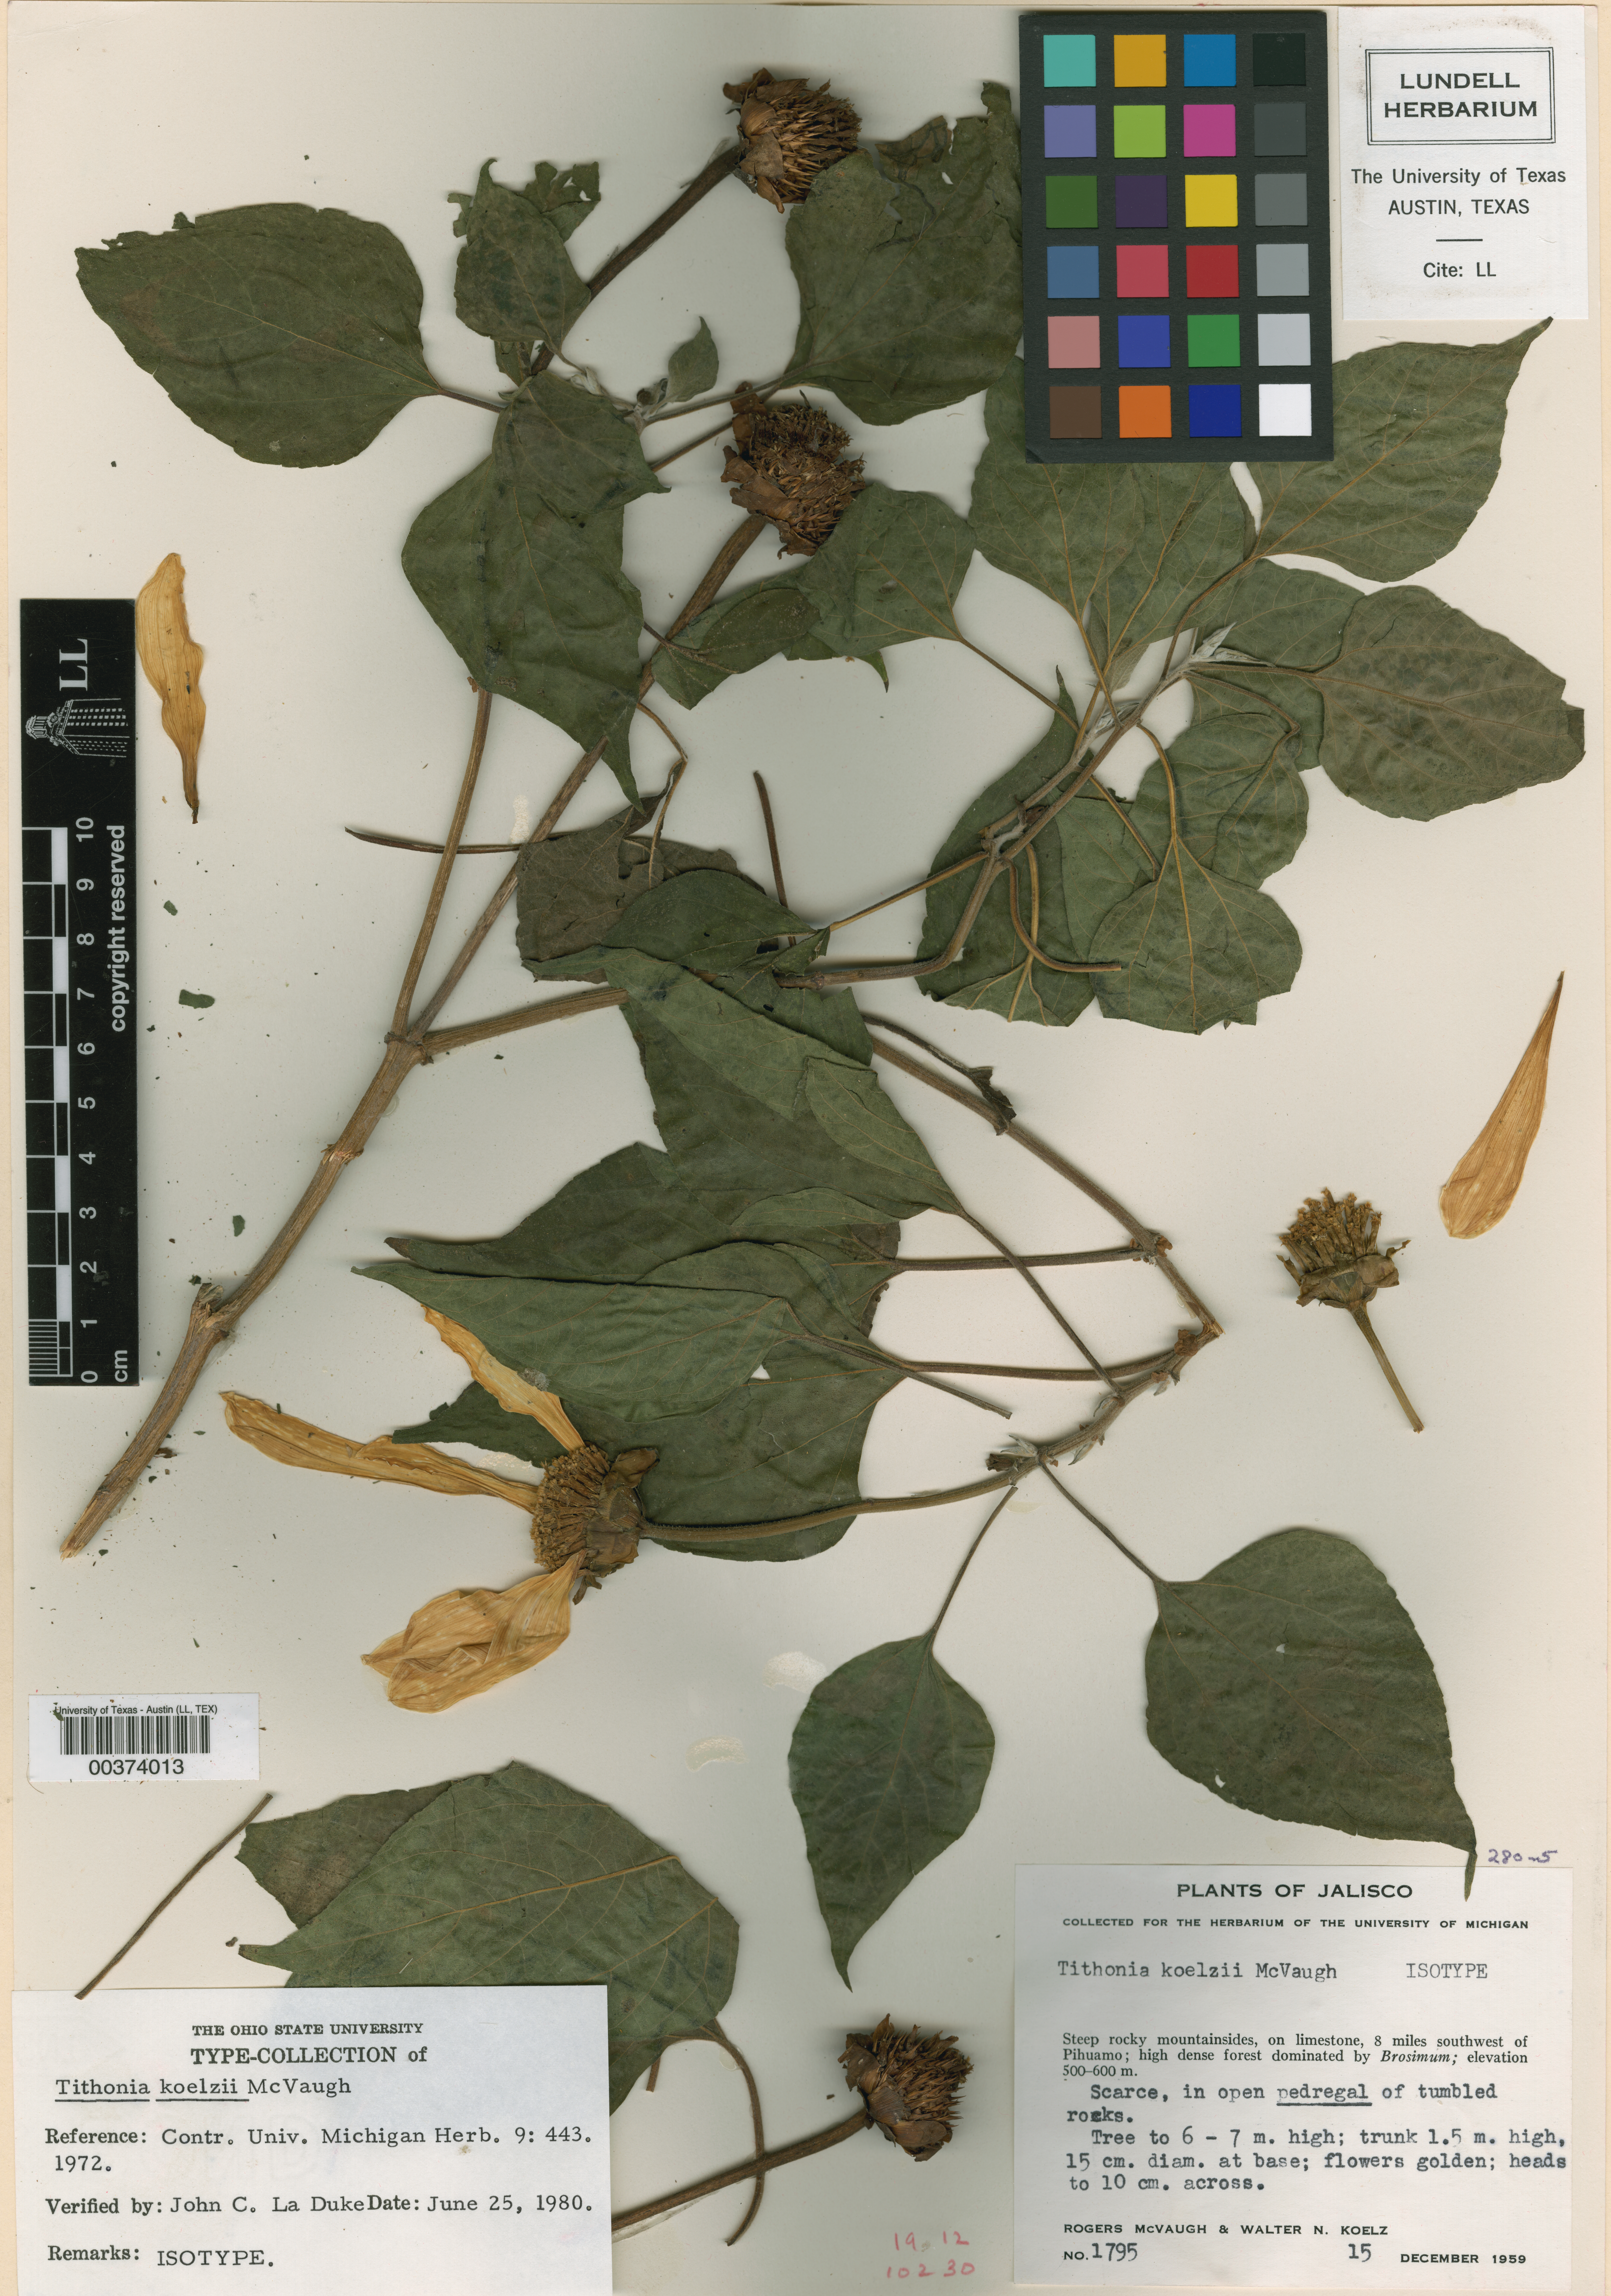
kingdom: Plantae
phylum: Tracheophyta
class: Magnoliopsida
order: Asterales
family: Asteraceae
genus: Tithonia
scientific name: Tithonia koelzii
